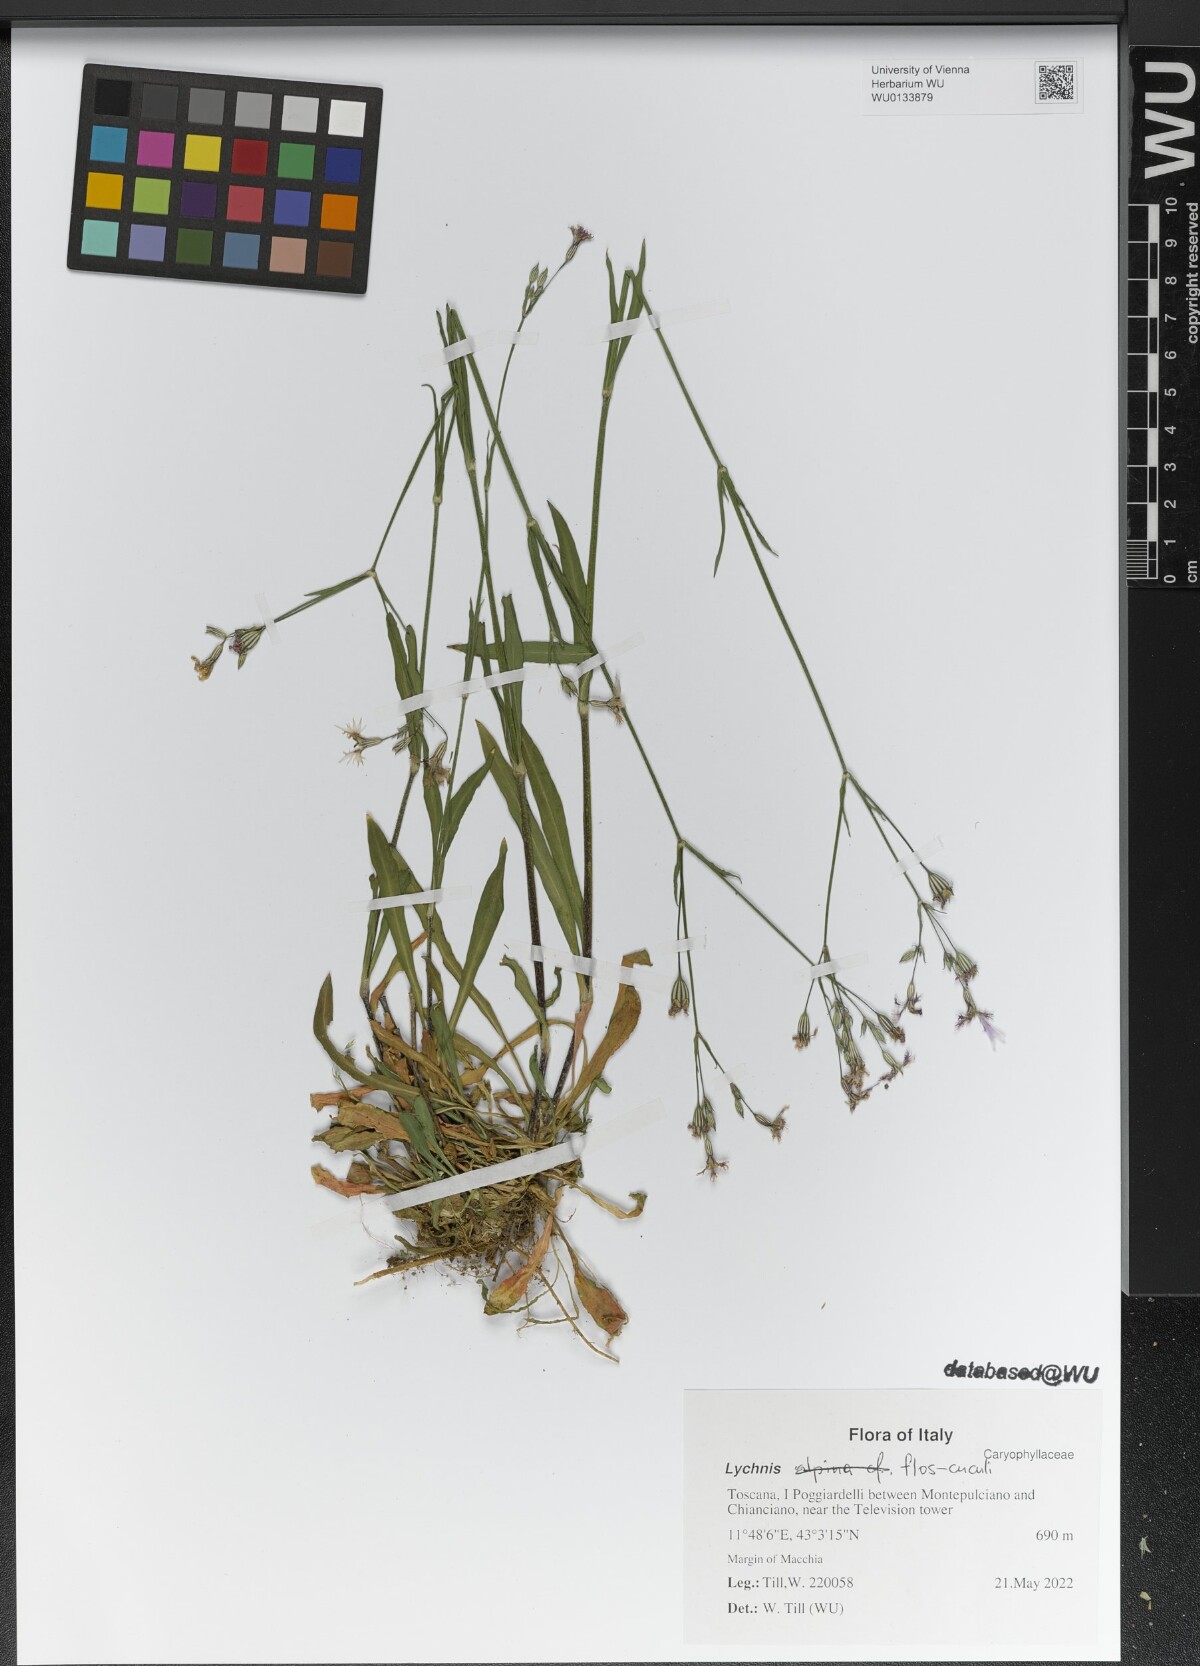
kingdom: Plantae
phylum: Tracheophyta
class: Magnoliopsida
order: Caryophyllales
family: Caryophyllaceae
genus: Silene
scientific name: Silene flos-cuculi
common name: Ragged-robin
